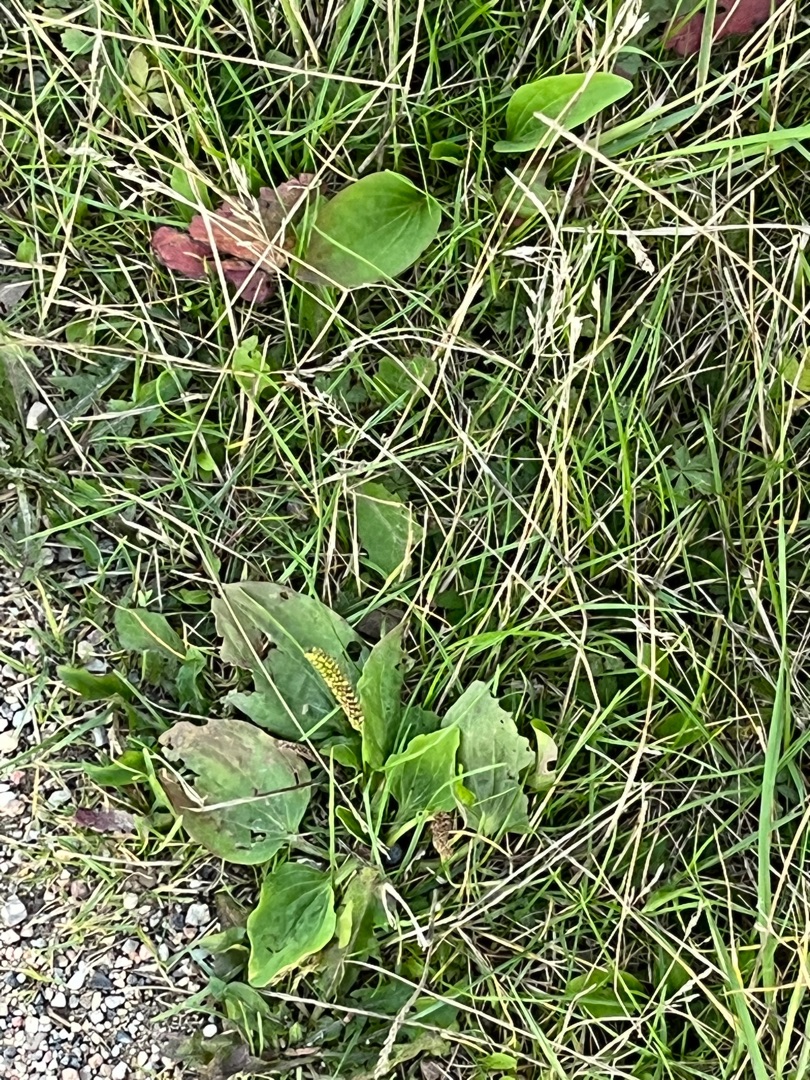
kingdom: Plantae
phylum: Tracheophyta
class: Magnoliopsida
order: Lamiales
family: Plantaginaceae
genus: Plantago
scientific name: Plantago major
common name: Glat vejbred
